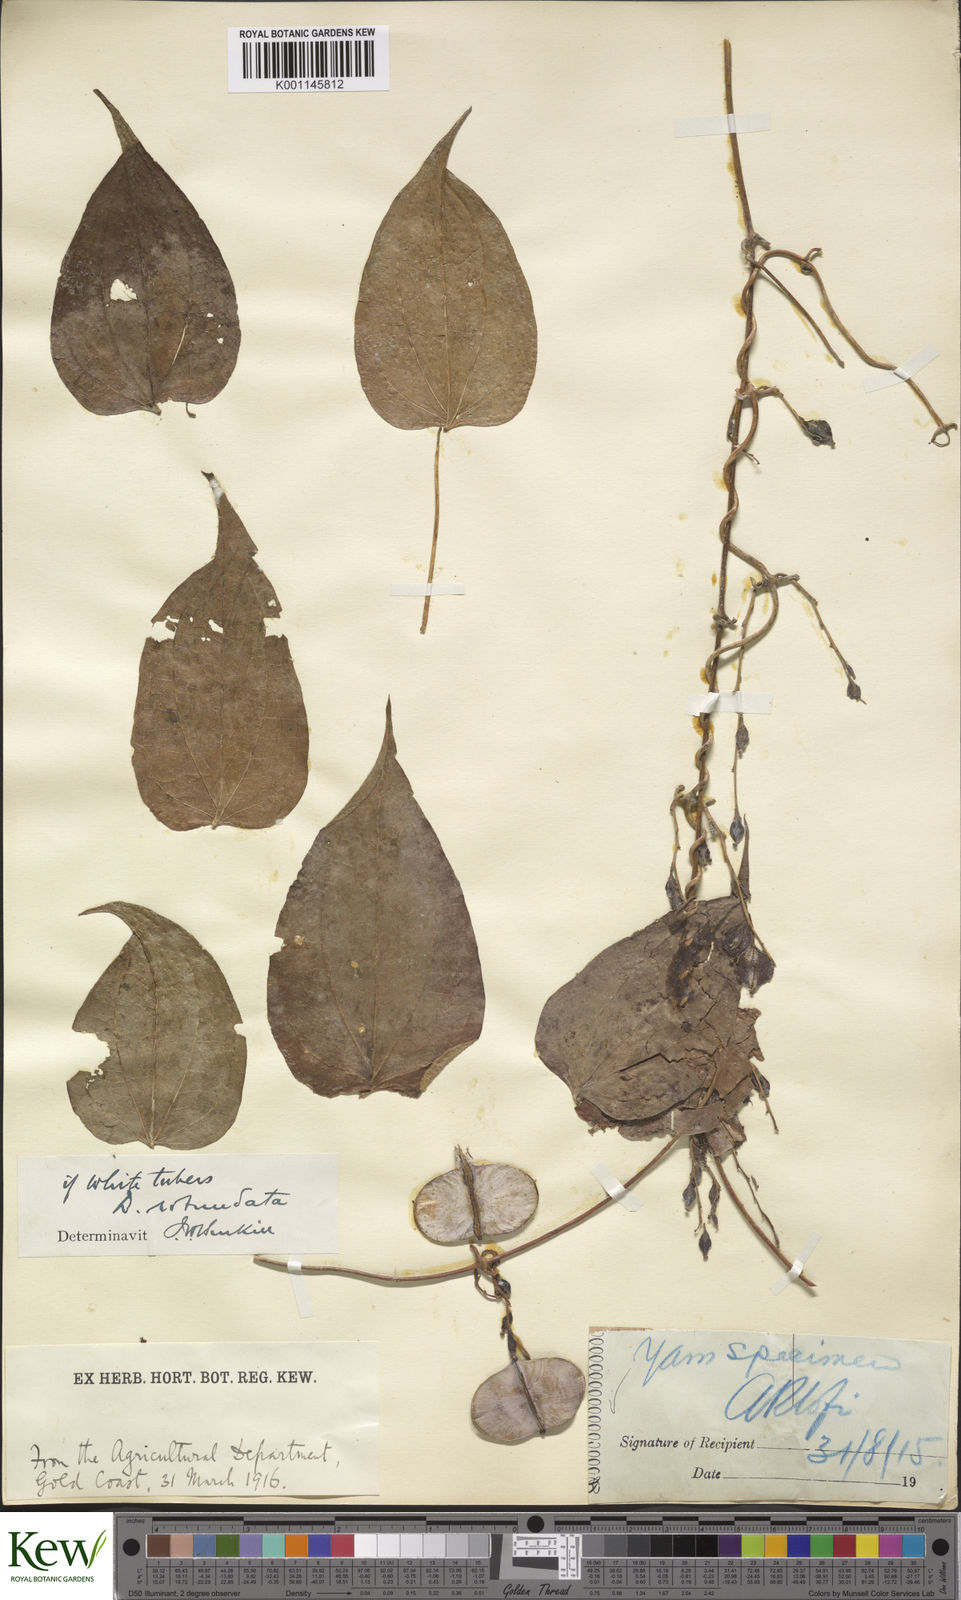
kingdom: Plantae
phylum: Tracheophyta
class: Liliopsida
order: Dioscoreales
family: Dioscoreaceae
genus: Dioscorea
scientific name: Dioscorea cayenensis
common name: Attoto yam
